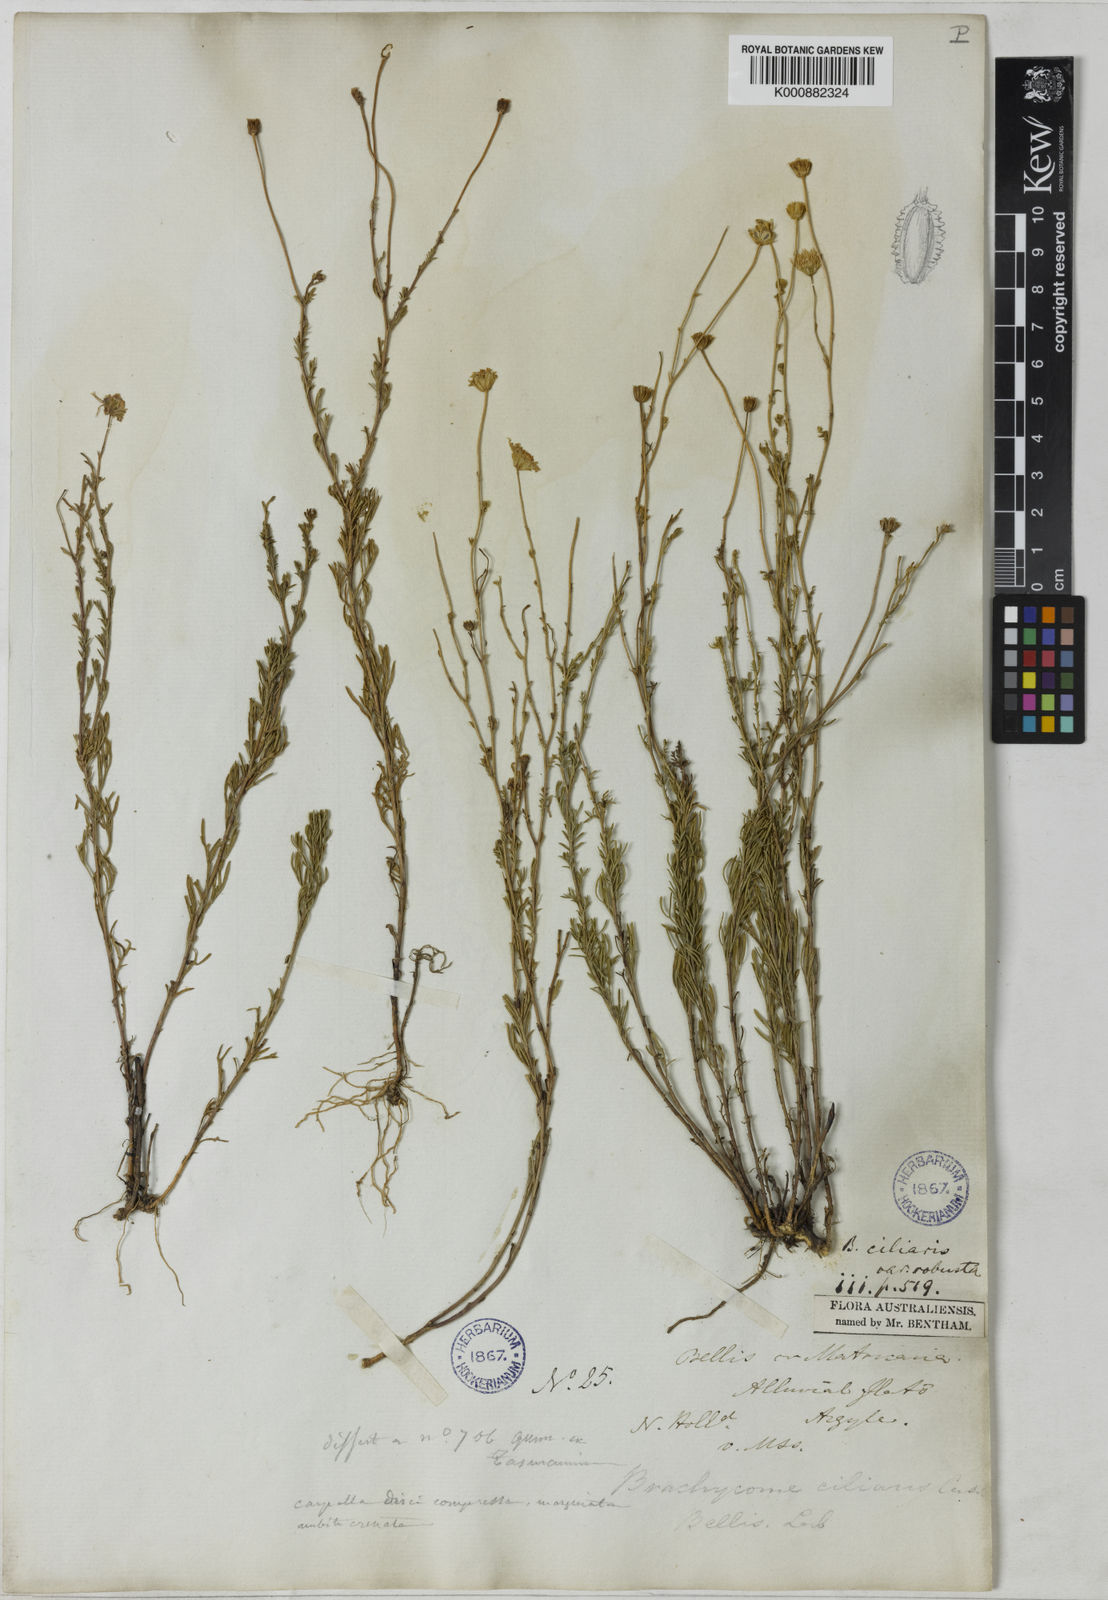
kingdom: Plantae
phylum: Tracheophyta
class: Magnoliopsida
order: Asterales
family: Asteraceae
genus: Brachyscome
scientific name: Brachyscome rigidula
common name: Leafy daisy
